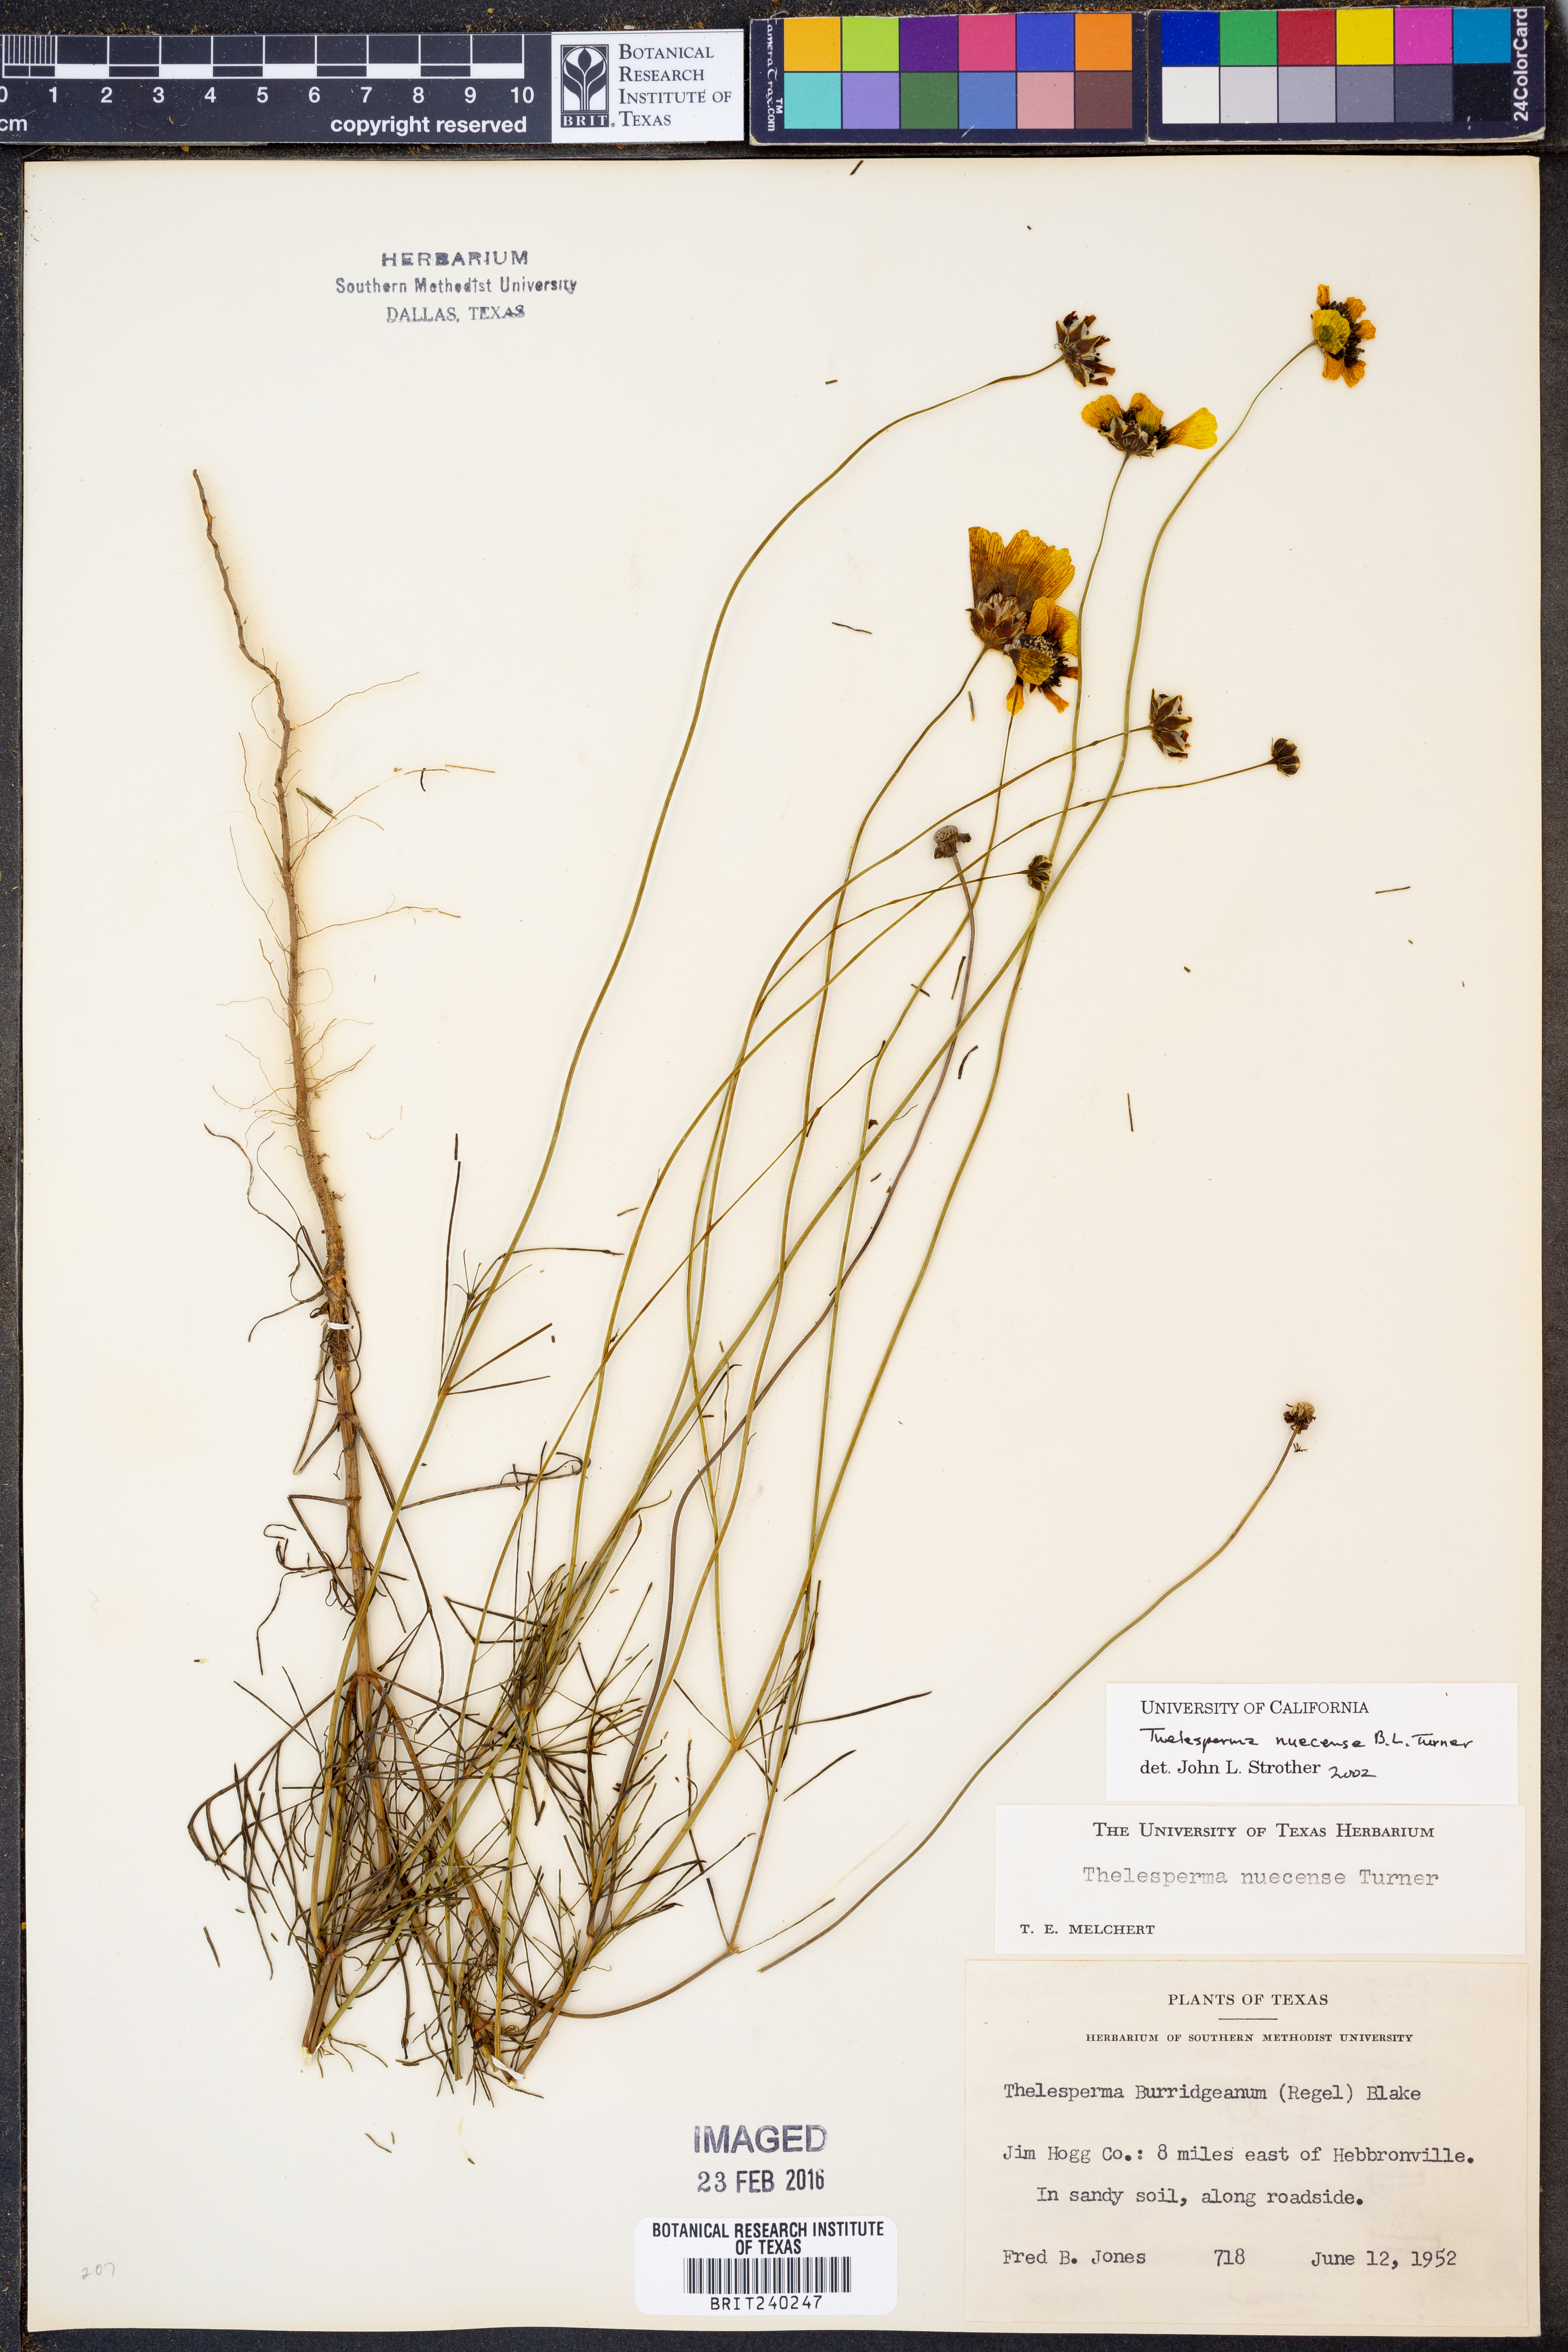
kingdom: Plantae
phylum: Tracheophyta
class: Magnoliopsida
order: Asterales
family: Asteraceae
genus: Thelesperma
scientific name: Thelesperma nuecense
